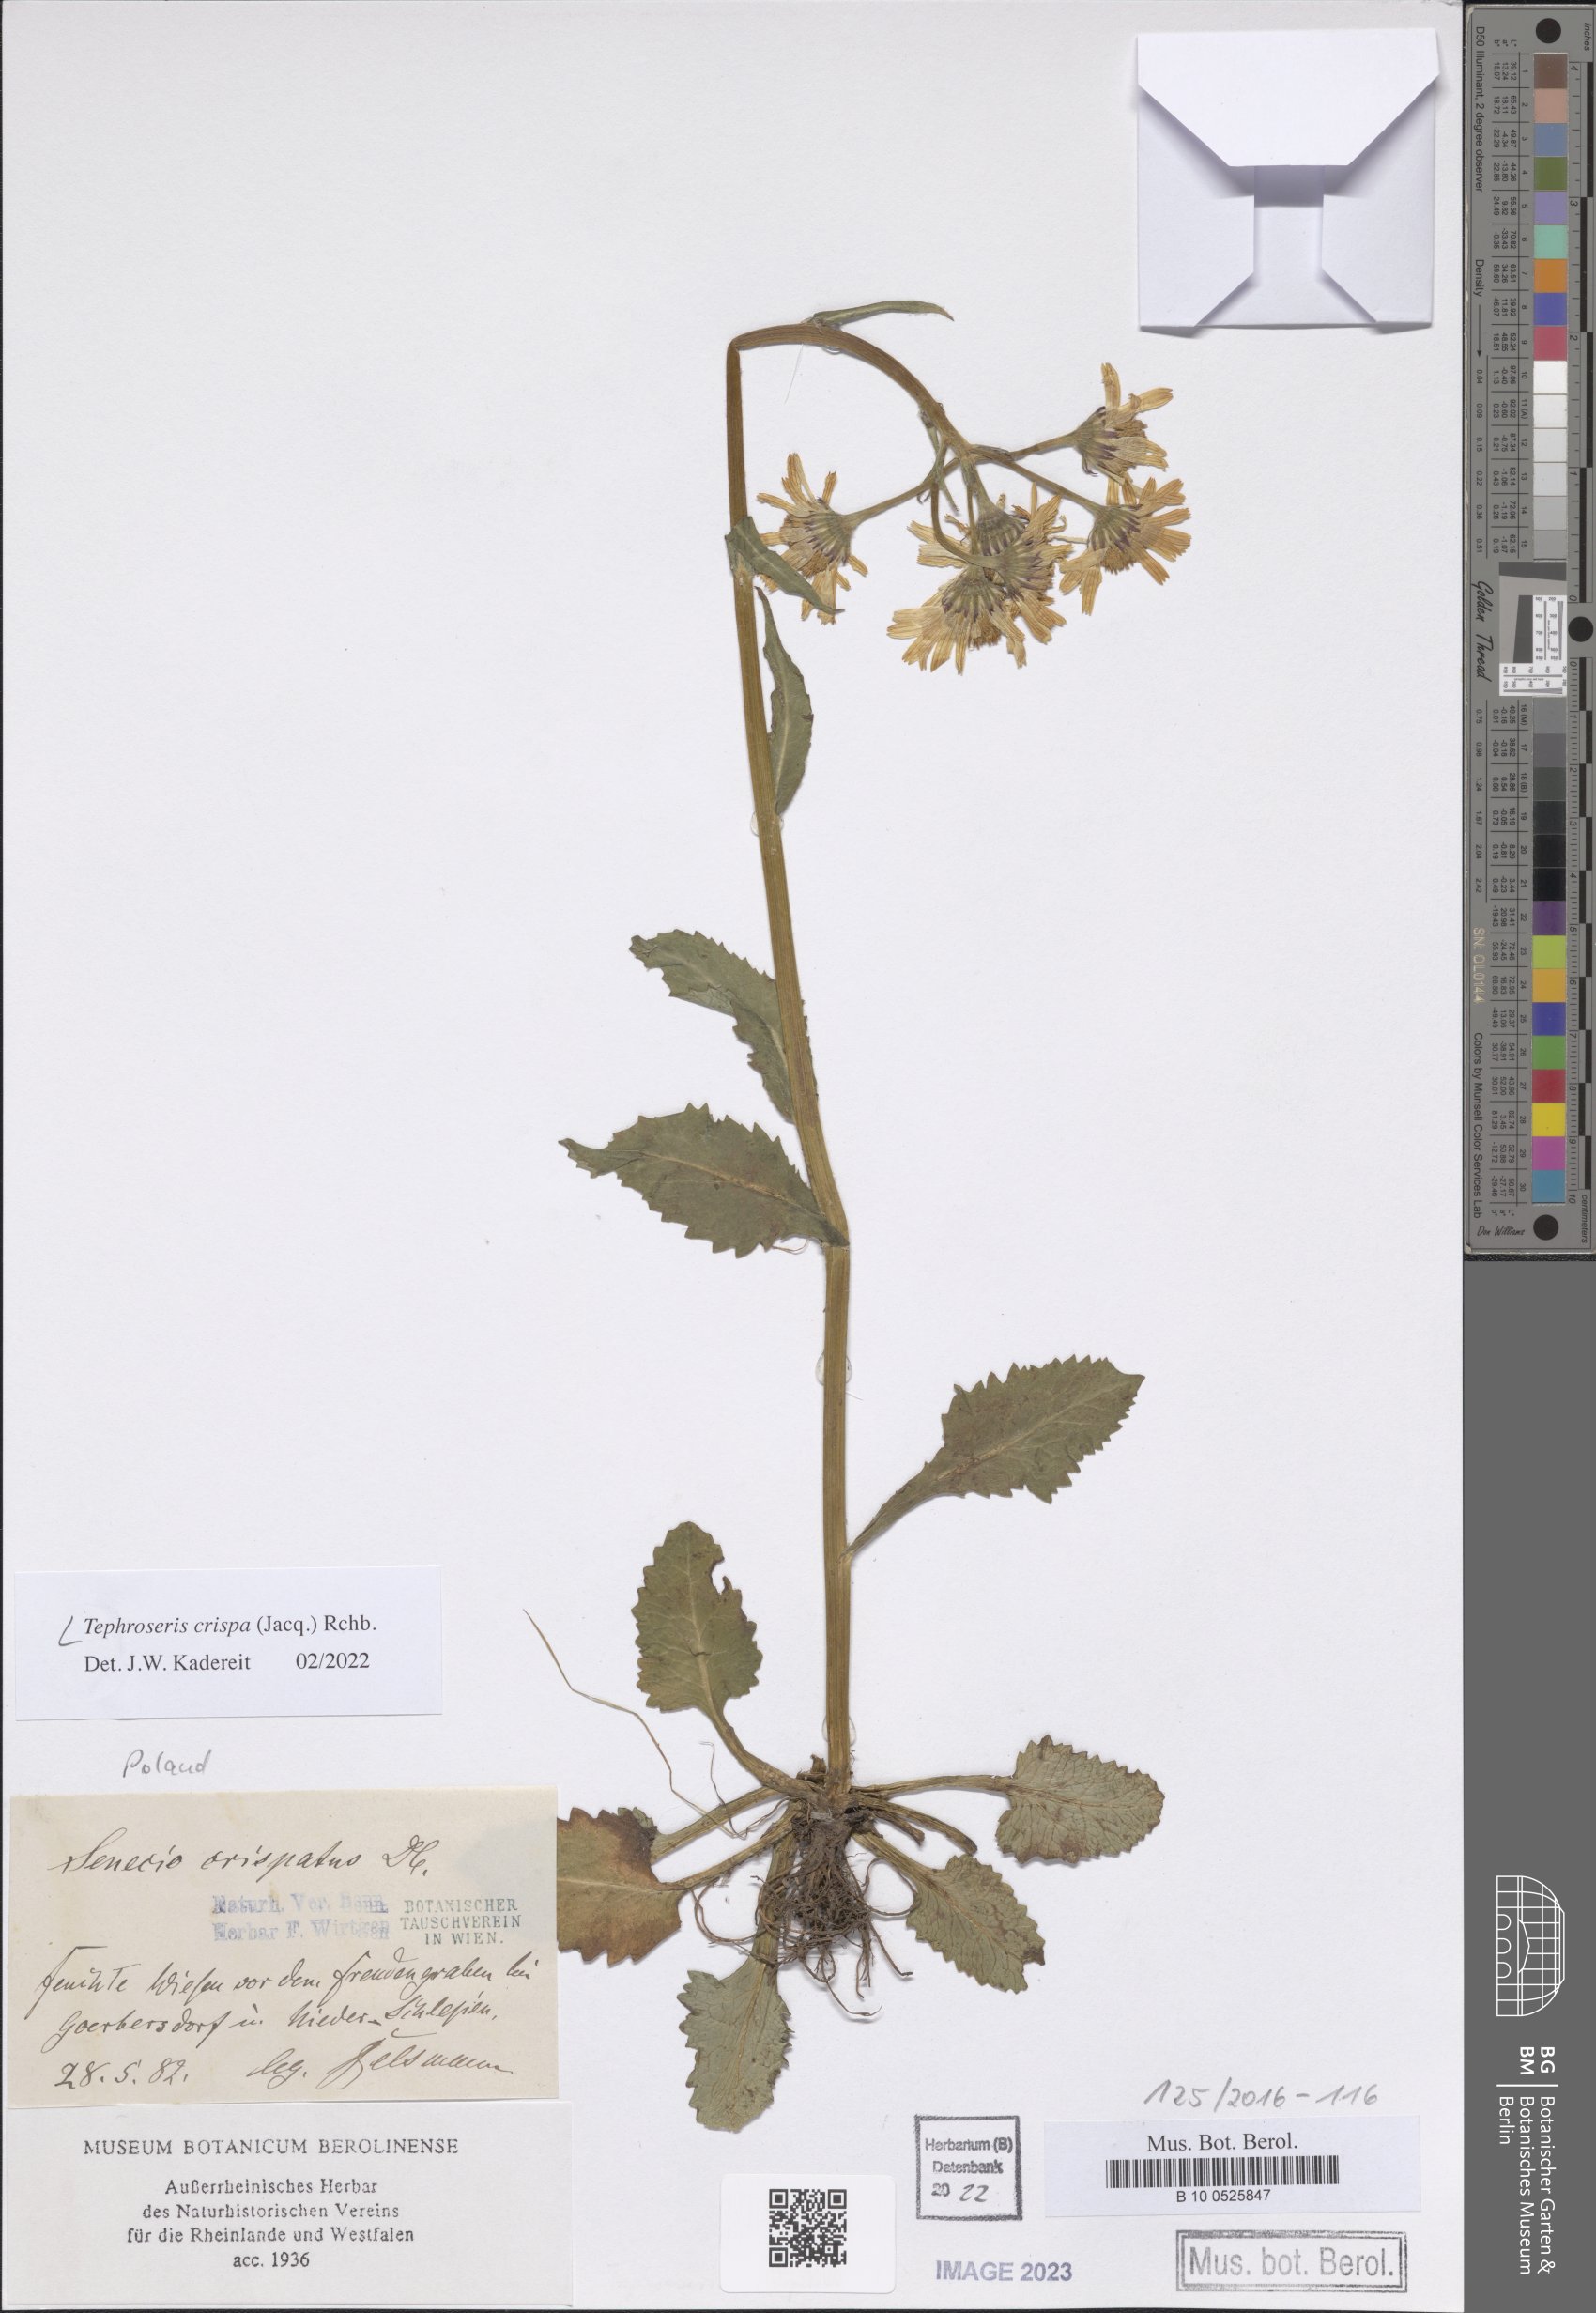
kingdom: Plantae
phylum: Tracheophyta
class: Magnoliopsida
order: Asterales
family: Asteraceae
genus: Tephroseris
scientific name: Tephroseris crispa
